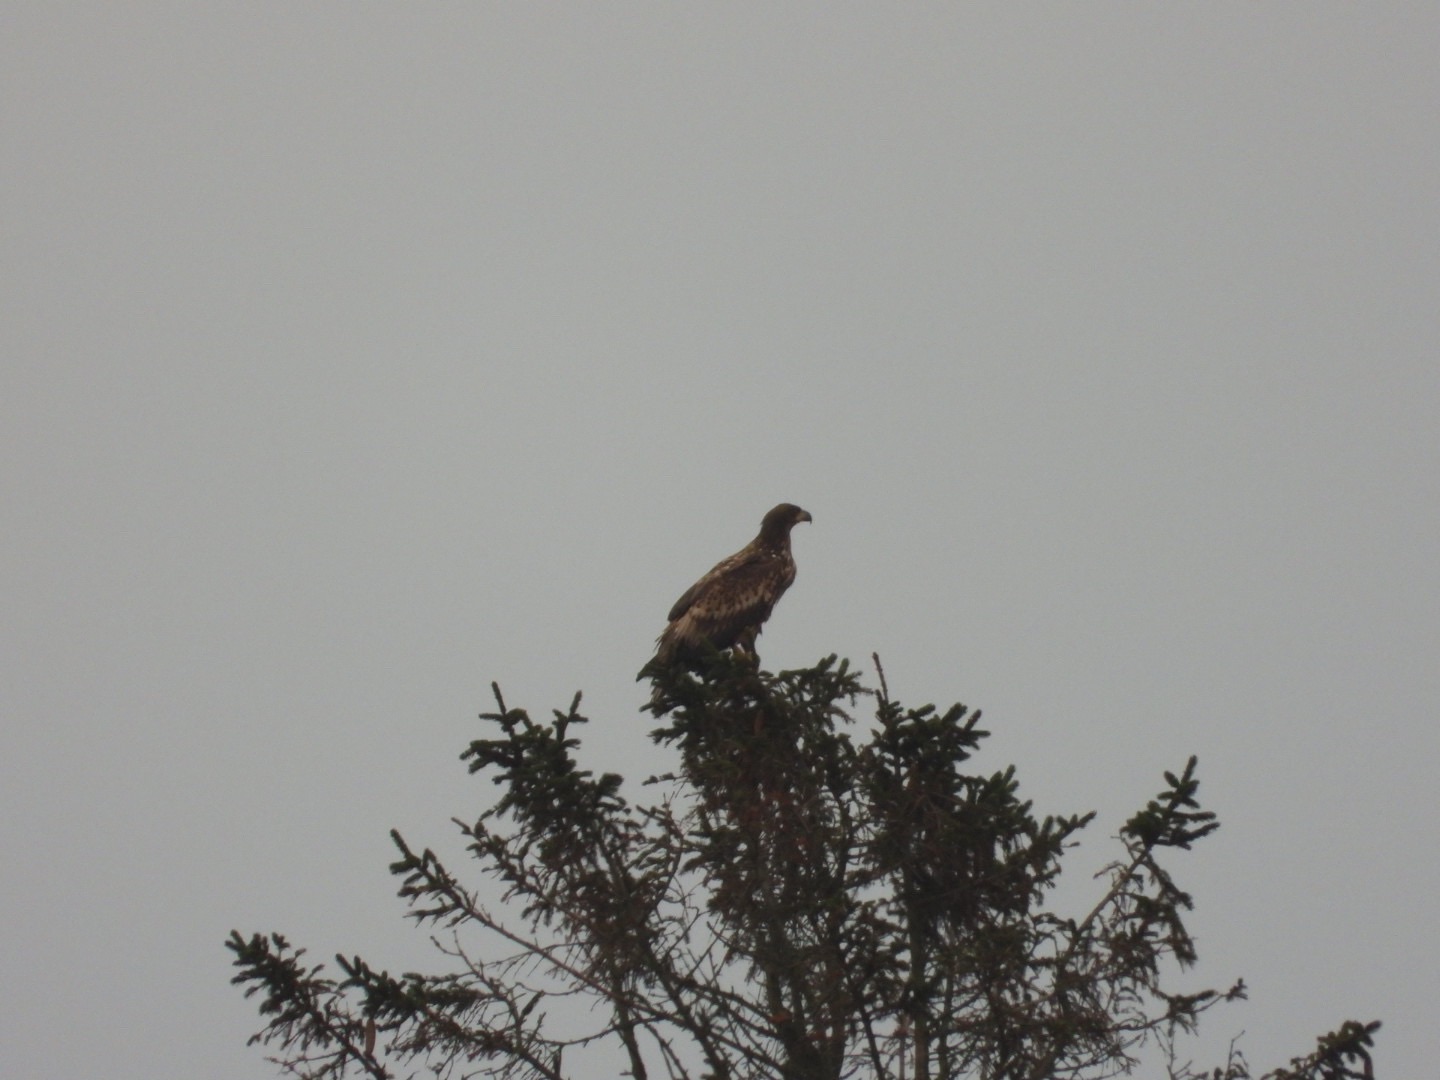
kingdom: Animalia
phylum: Chordata
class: Aves
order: Accipitriformes
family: Accipitridae
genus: Haliaeetus
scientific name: Haliaeetus albicilla
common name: Havørn
